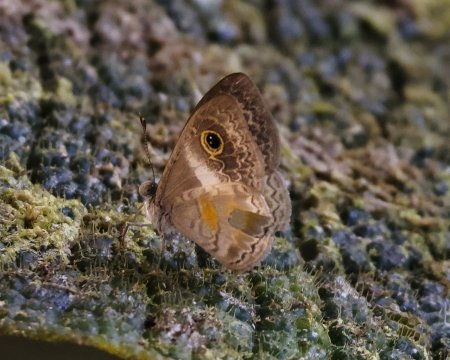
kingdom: Animalia
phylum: Arthropoda
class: Insecta
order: Lepidoptera
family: Riodinidae
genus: Perophthalma
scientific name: Perophthalma lasus
